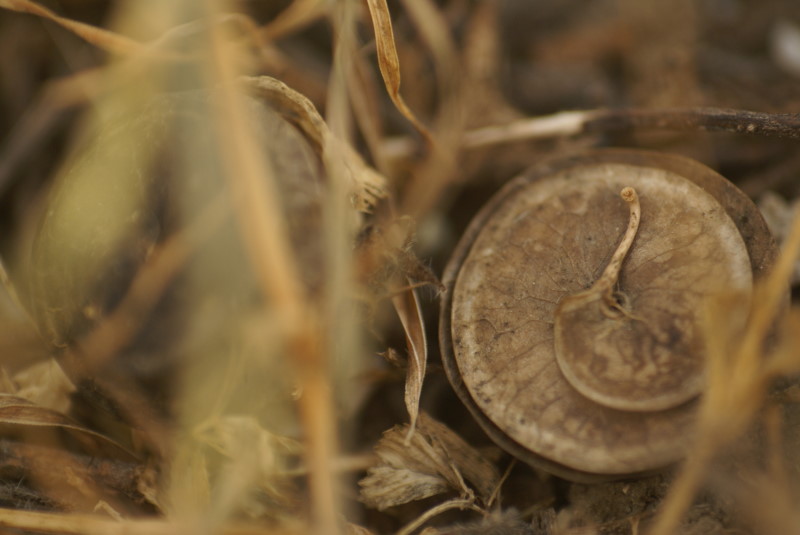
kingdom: Plantae
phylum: Tracheophyta
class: Magnoliopsida
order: Fabales
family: Fabaceae
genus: Medicago
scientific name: Medicago falcata
